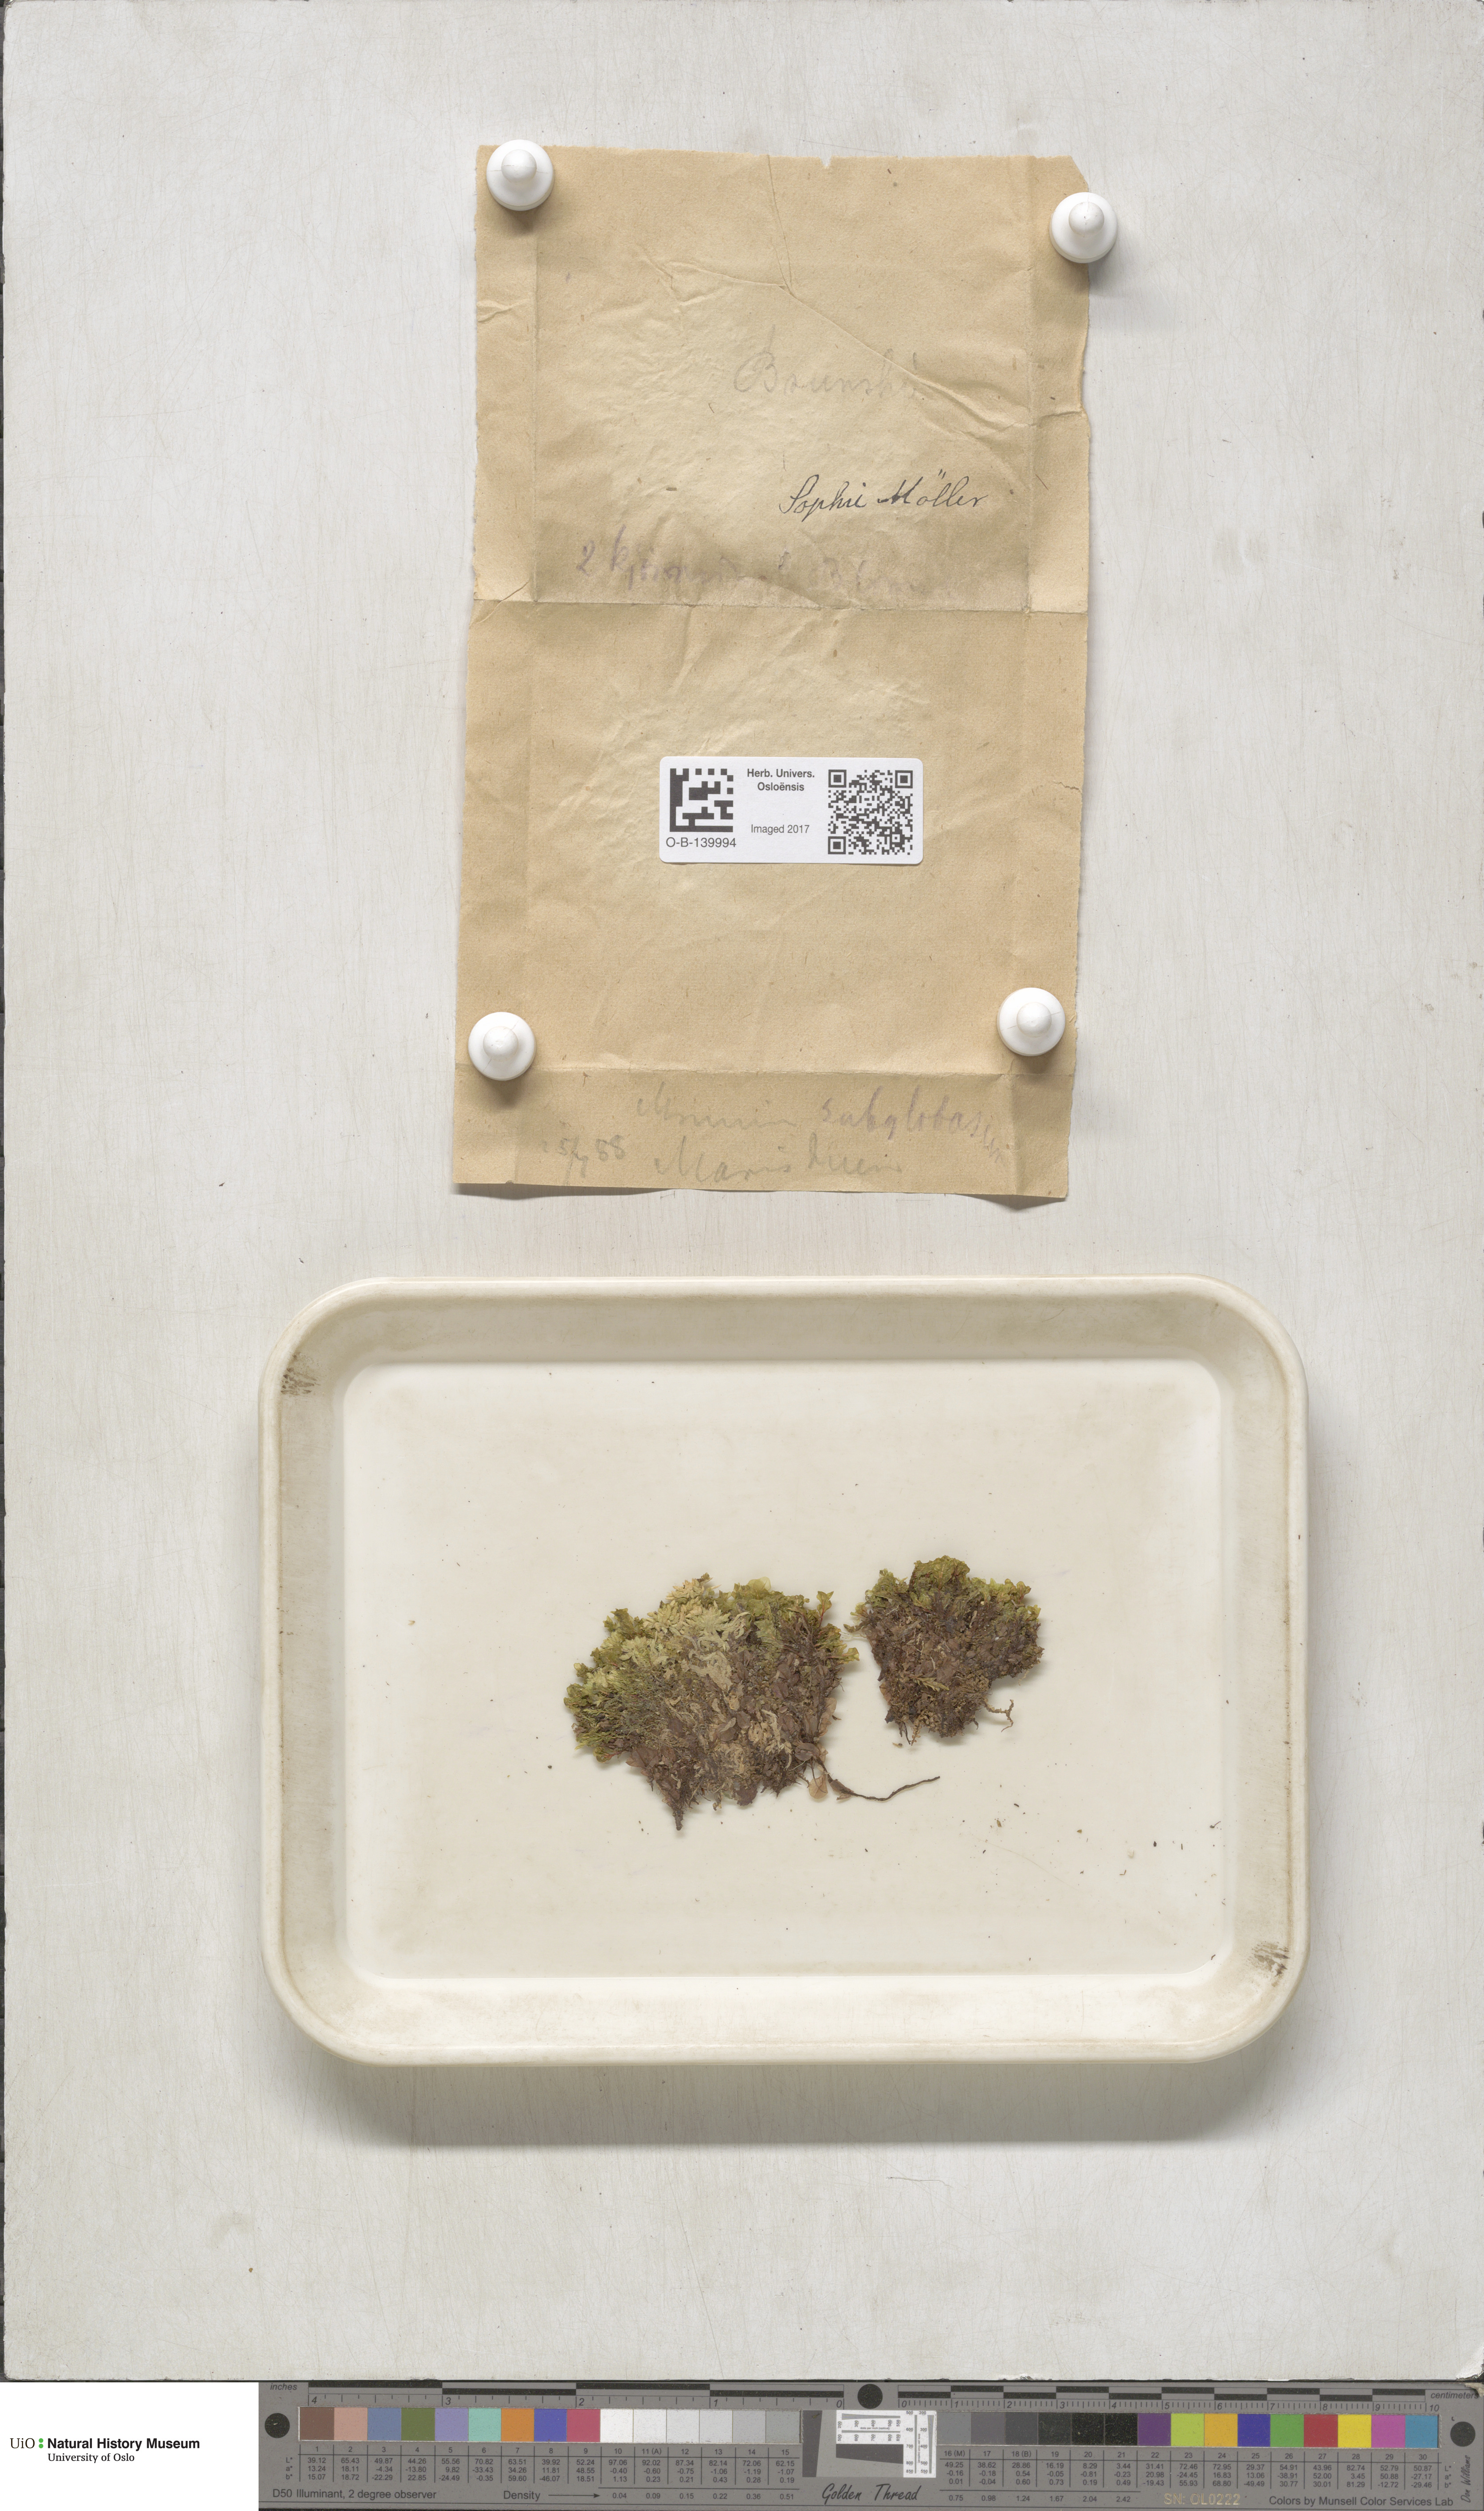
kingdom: Plantae
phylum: Bryophyta
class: Bryopsida
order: Bryales
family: Mniaceae
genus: Rhizomnium
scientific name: Rhizomnium pseudopunctatum
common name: Felted leafy moss
